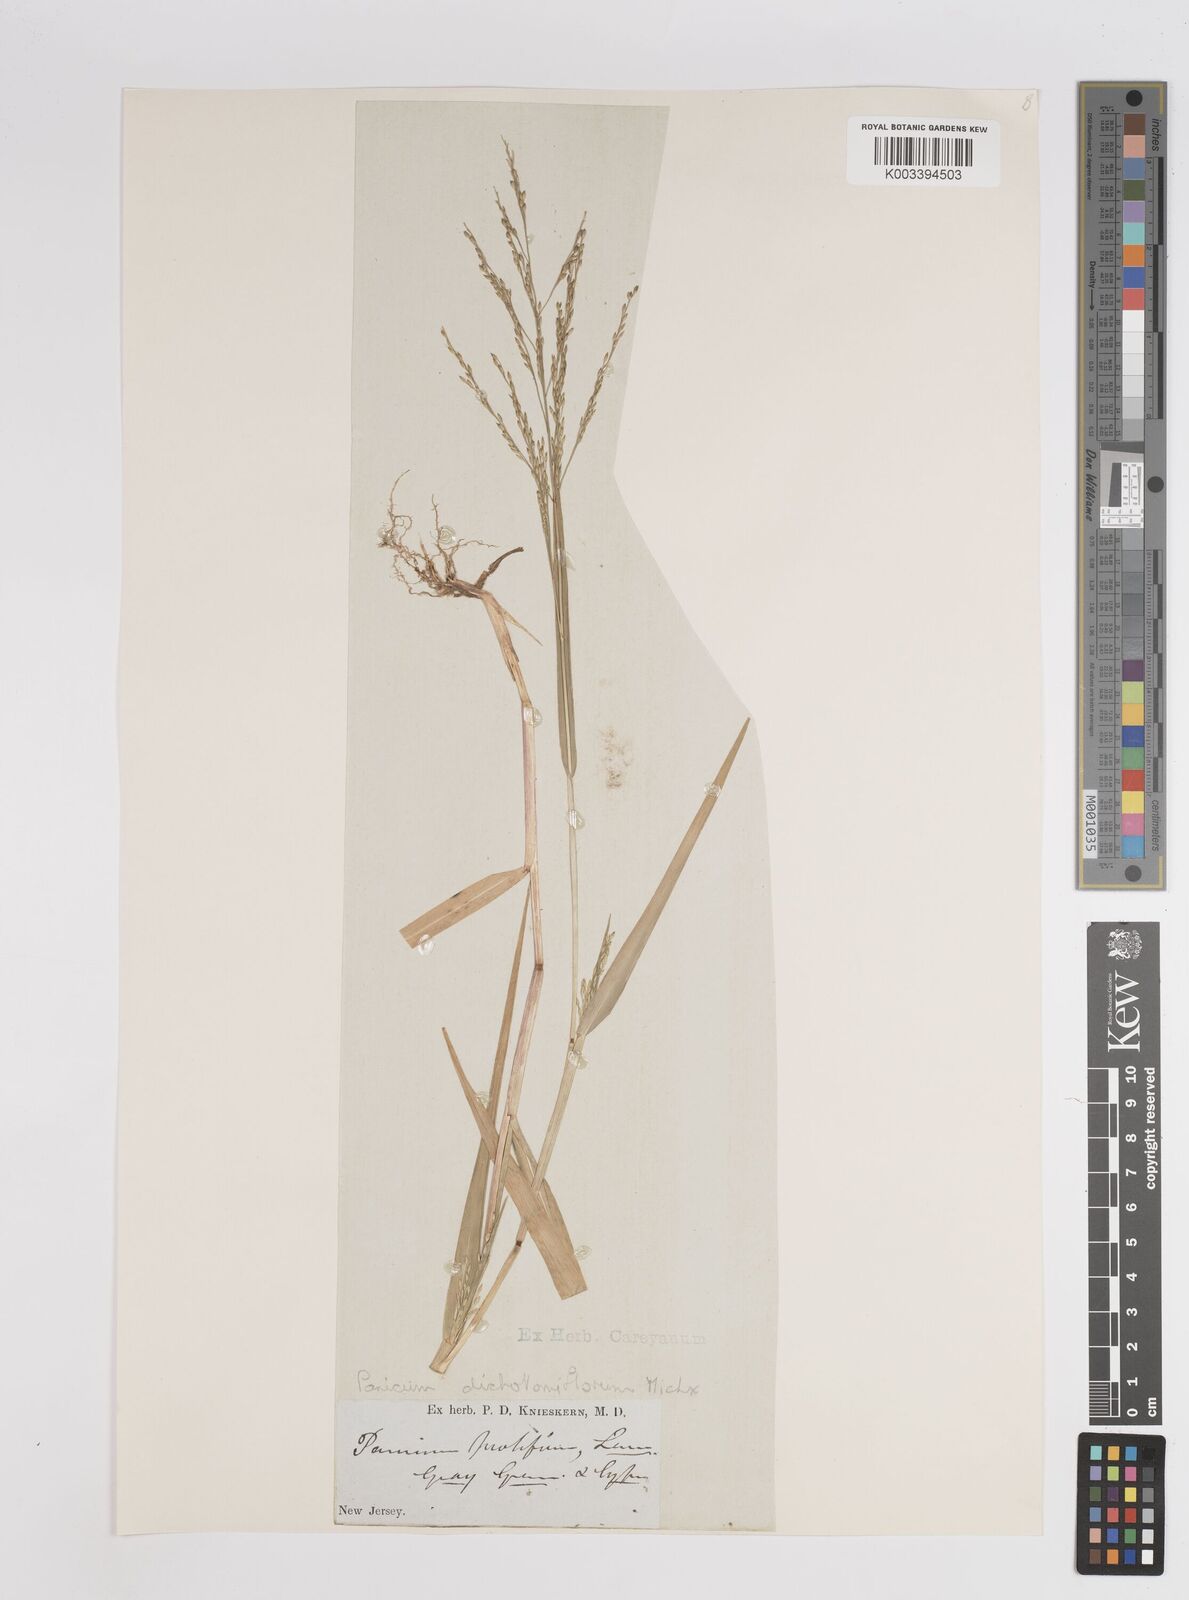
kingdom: Plantae
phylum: Tracheophyta
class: Liliopsida
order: Poales
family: Poaceae
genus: Panicum
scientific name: Panicum dichotomiflorum
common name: Autumn millet
